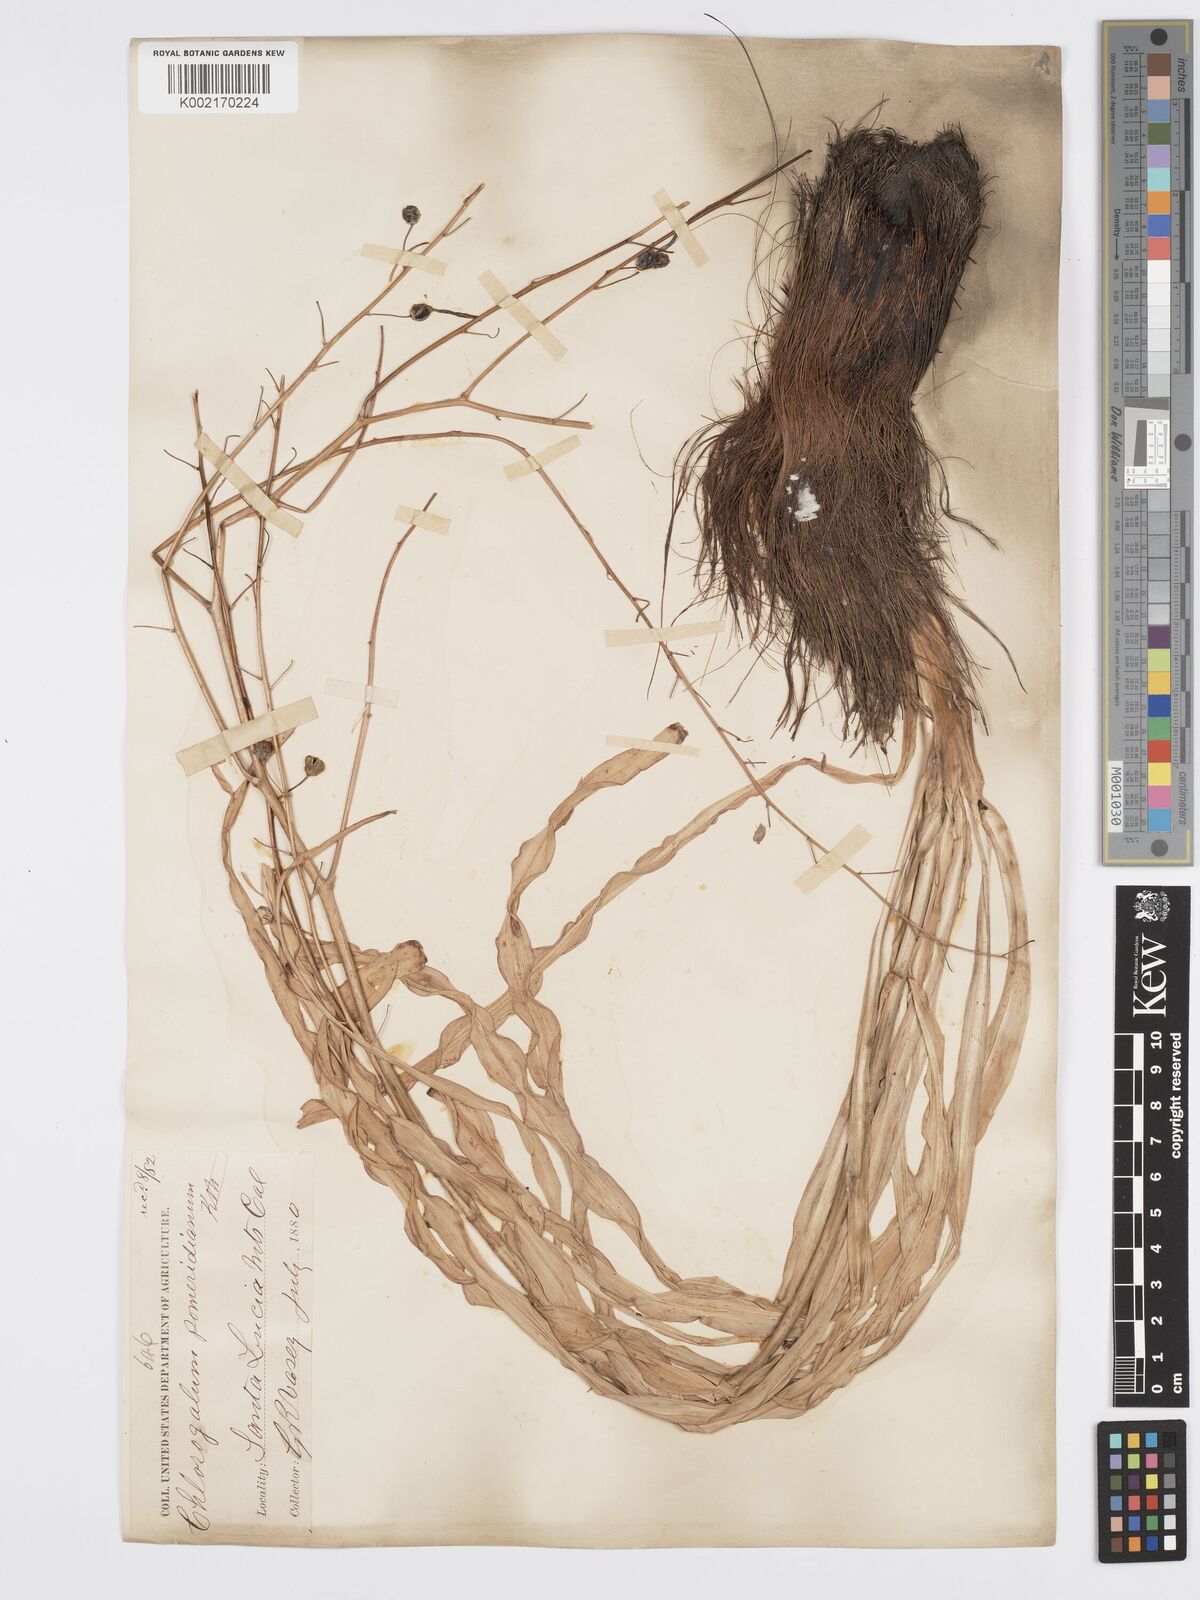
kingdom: Plantae
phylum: Tracheophyta
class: Liliopsida
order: Asparagales
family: Asparagaceae
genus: Chlorogalum
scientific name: Chlorogalum pomeridianum
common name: Amole
